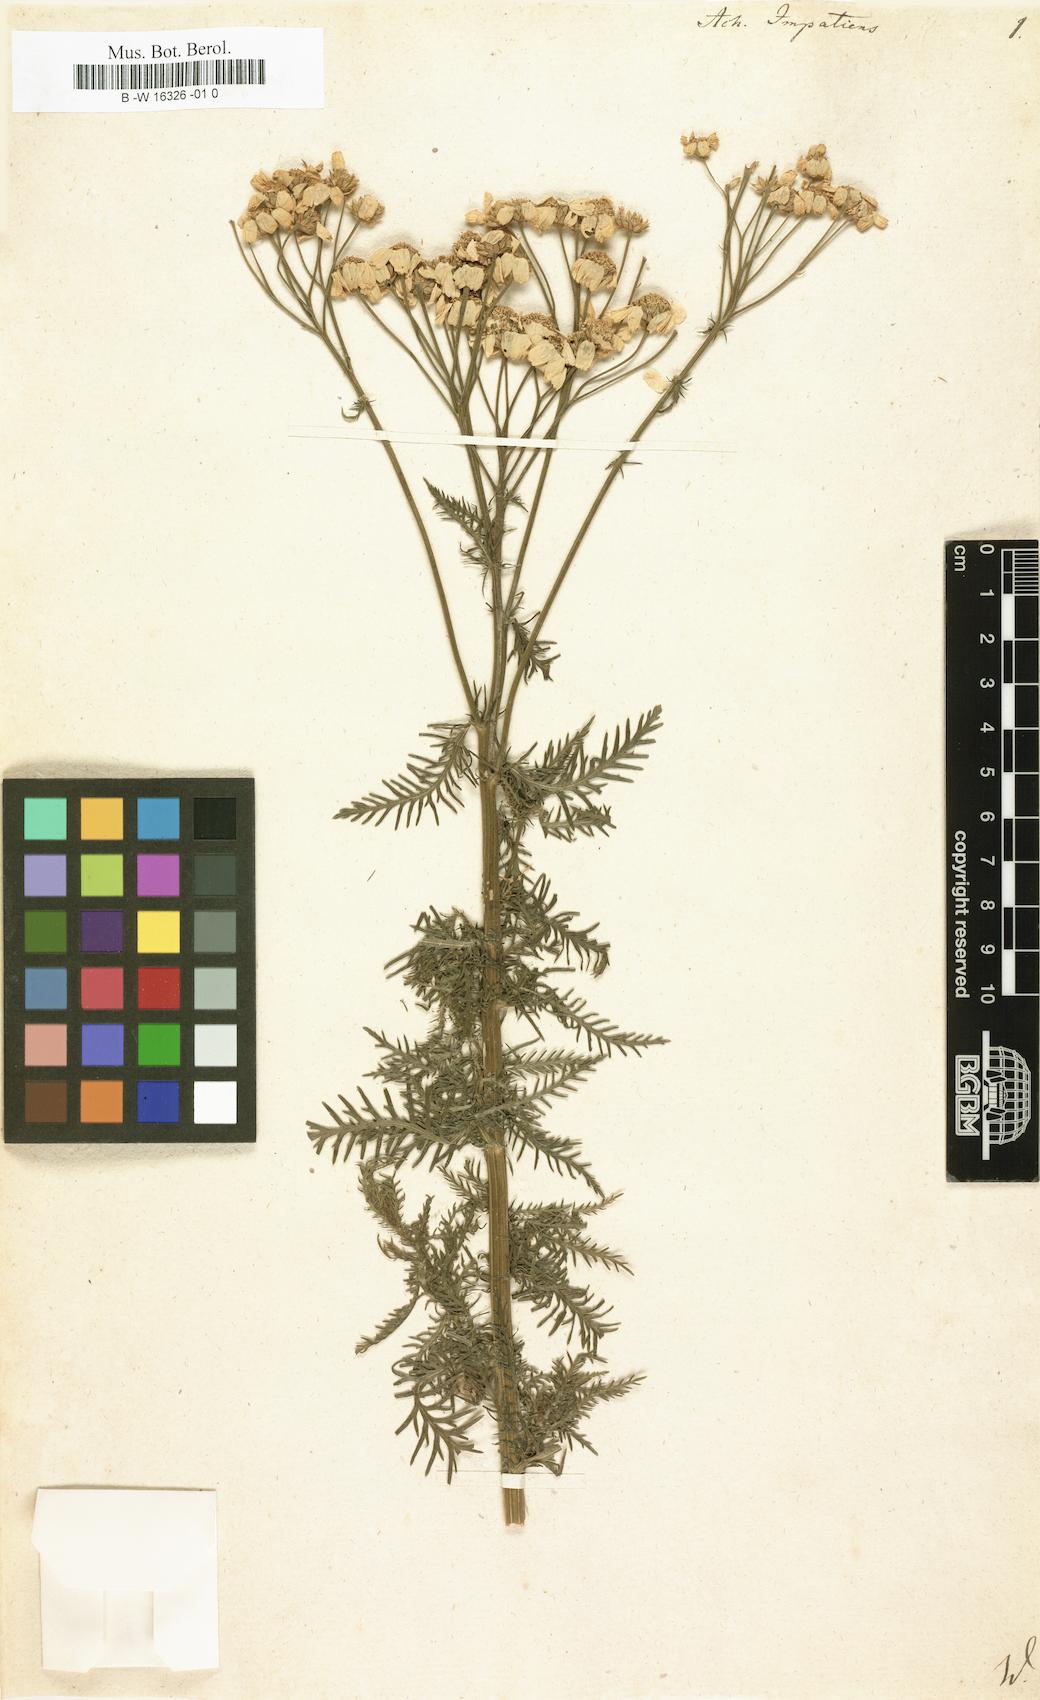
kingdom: Plantae
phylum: Tracheophyta
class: Magnoliopsida
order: Asterales
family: Asteraceae
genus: Achillea
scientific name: Achillea impatiens
